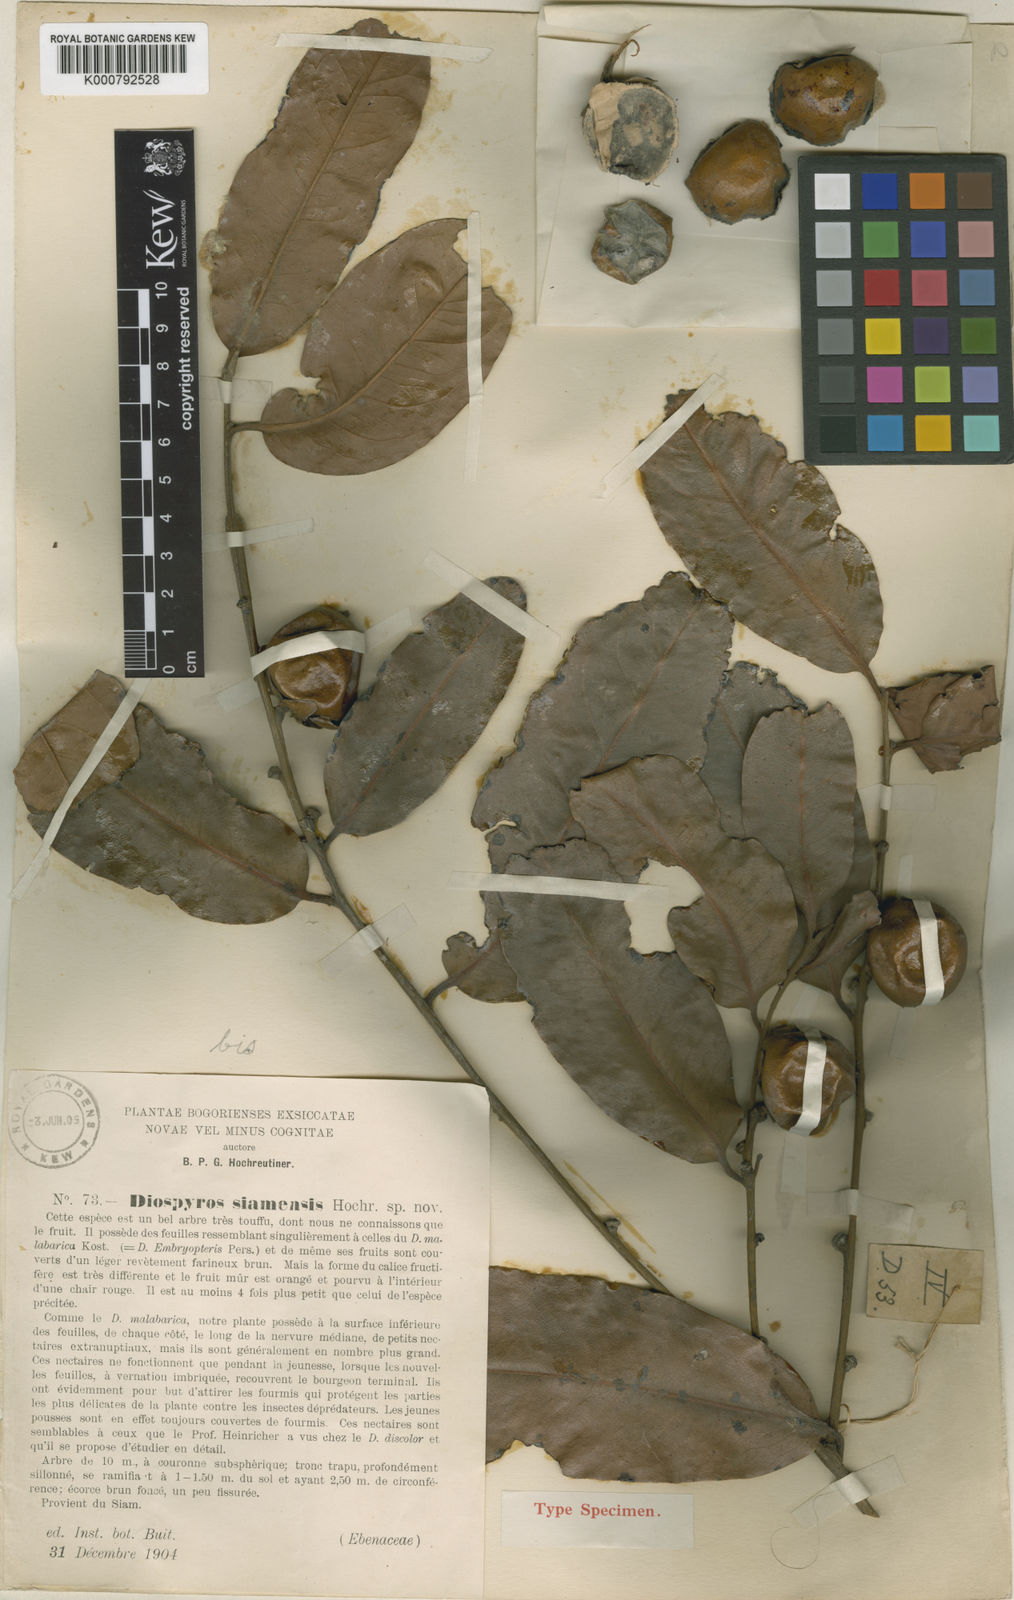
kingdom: Plantae
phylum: Tracheophyta
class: Magnoliopsida
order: Ericales
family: Ebenaceae
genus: Diospyros
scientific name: Diospyros malabarica
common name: Mountain ebony
